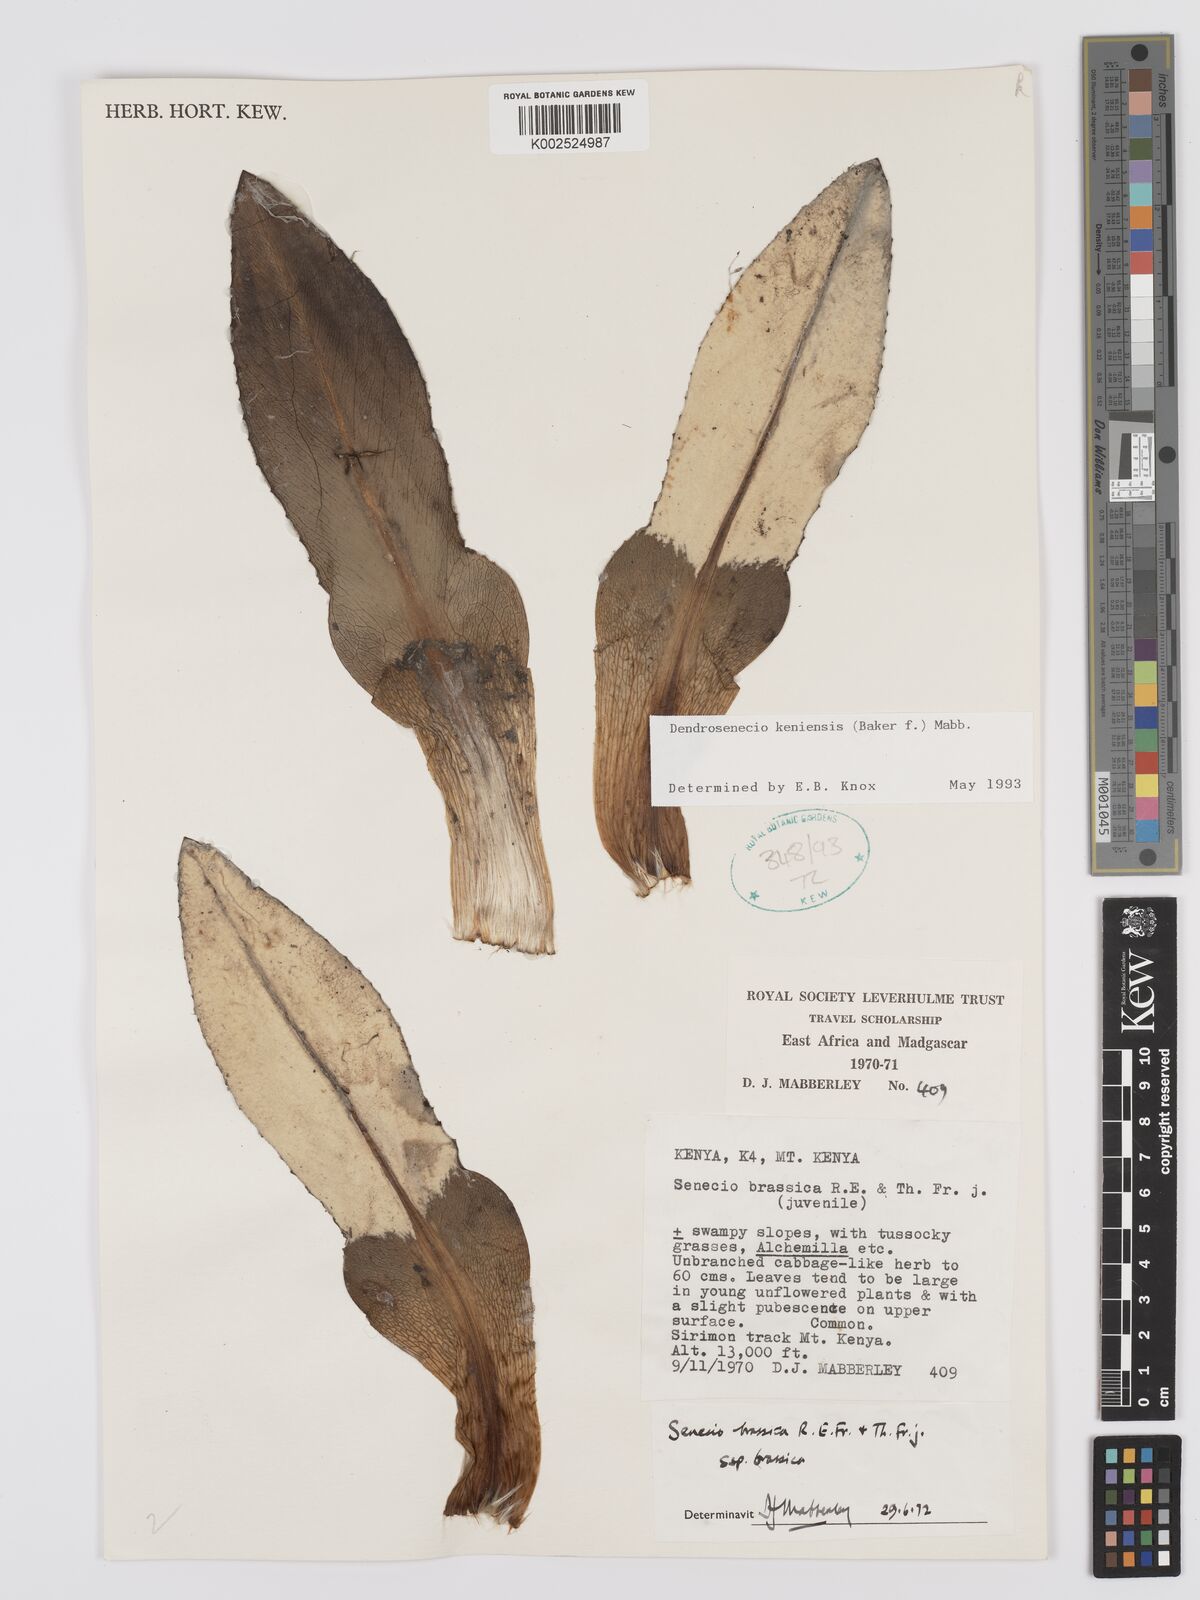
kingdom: Plantae
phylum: Tracheophyta
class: Magnoliopsida
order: Asterales
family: Asteraceae
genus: Dendrosenecio
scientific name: Dendrosenecio keniensis
